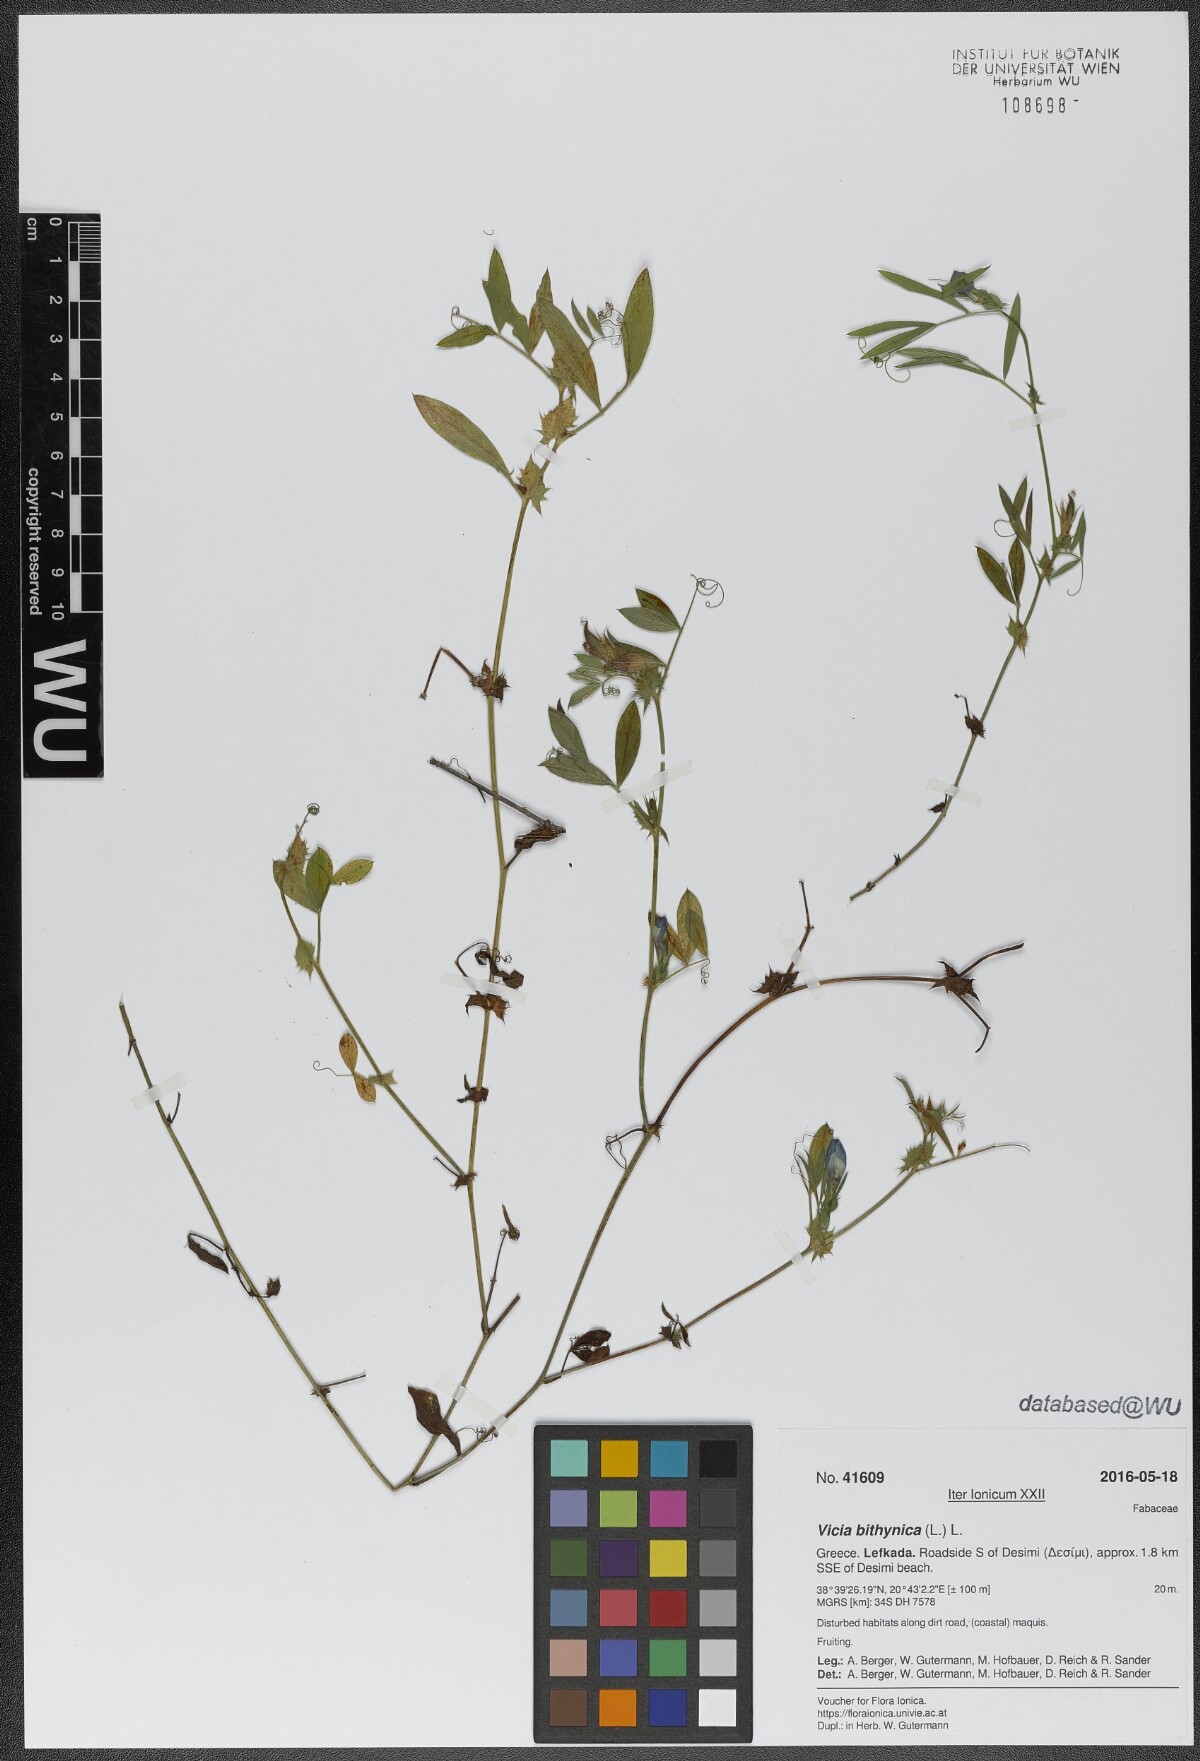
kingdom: Plantae
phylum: Tracheophyta
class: Magnoliopsida
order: Fabales
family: Fabaceae
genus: Vicia
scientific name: Vicia bithynica
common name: Bithynian vetch
